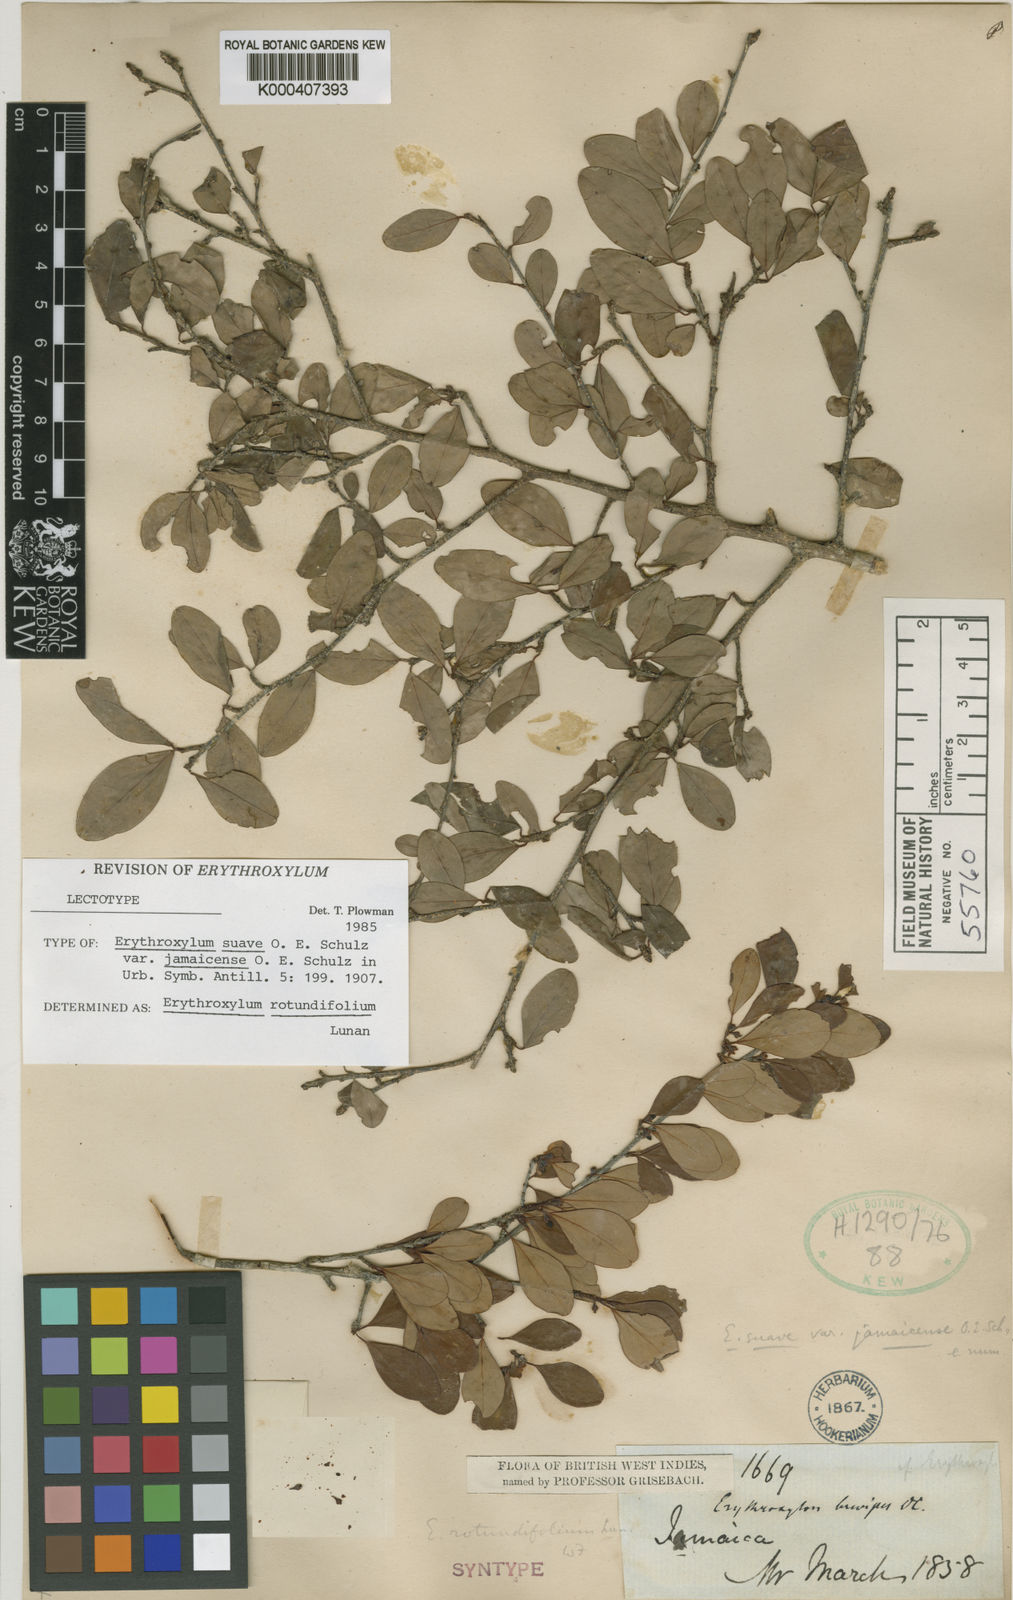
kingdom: Plantae
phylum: Tracheophyta
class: Magnoliopsida
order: Malpighiales
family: Erythroxylaceae
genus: Erythroxylum
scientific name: Erythroxylum rotundifolium
